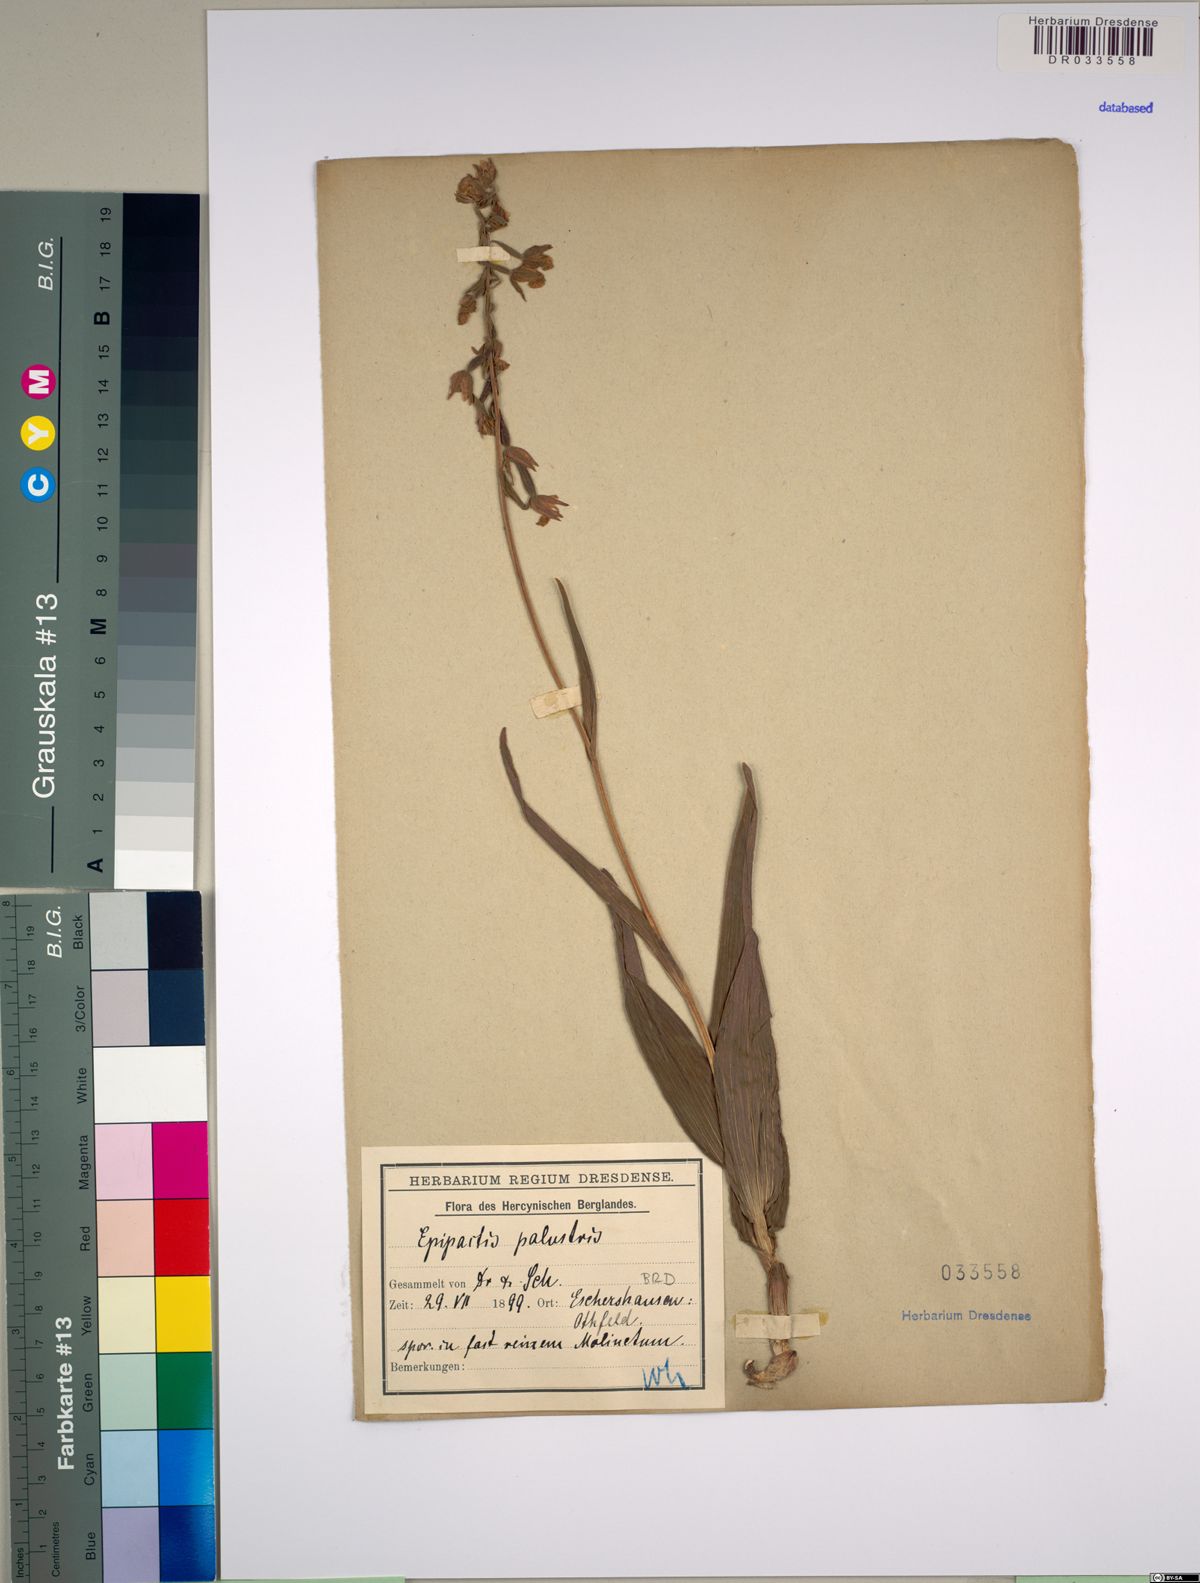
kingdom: Plantae
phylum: Tracheophyta
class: Liliopsida
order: Asparagales
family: Orchidaceae
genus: Epipactis
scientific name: Epipactis palustris
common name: Marsh helleborine
